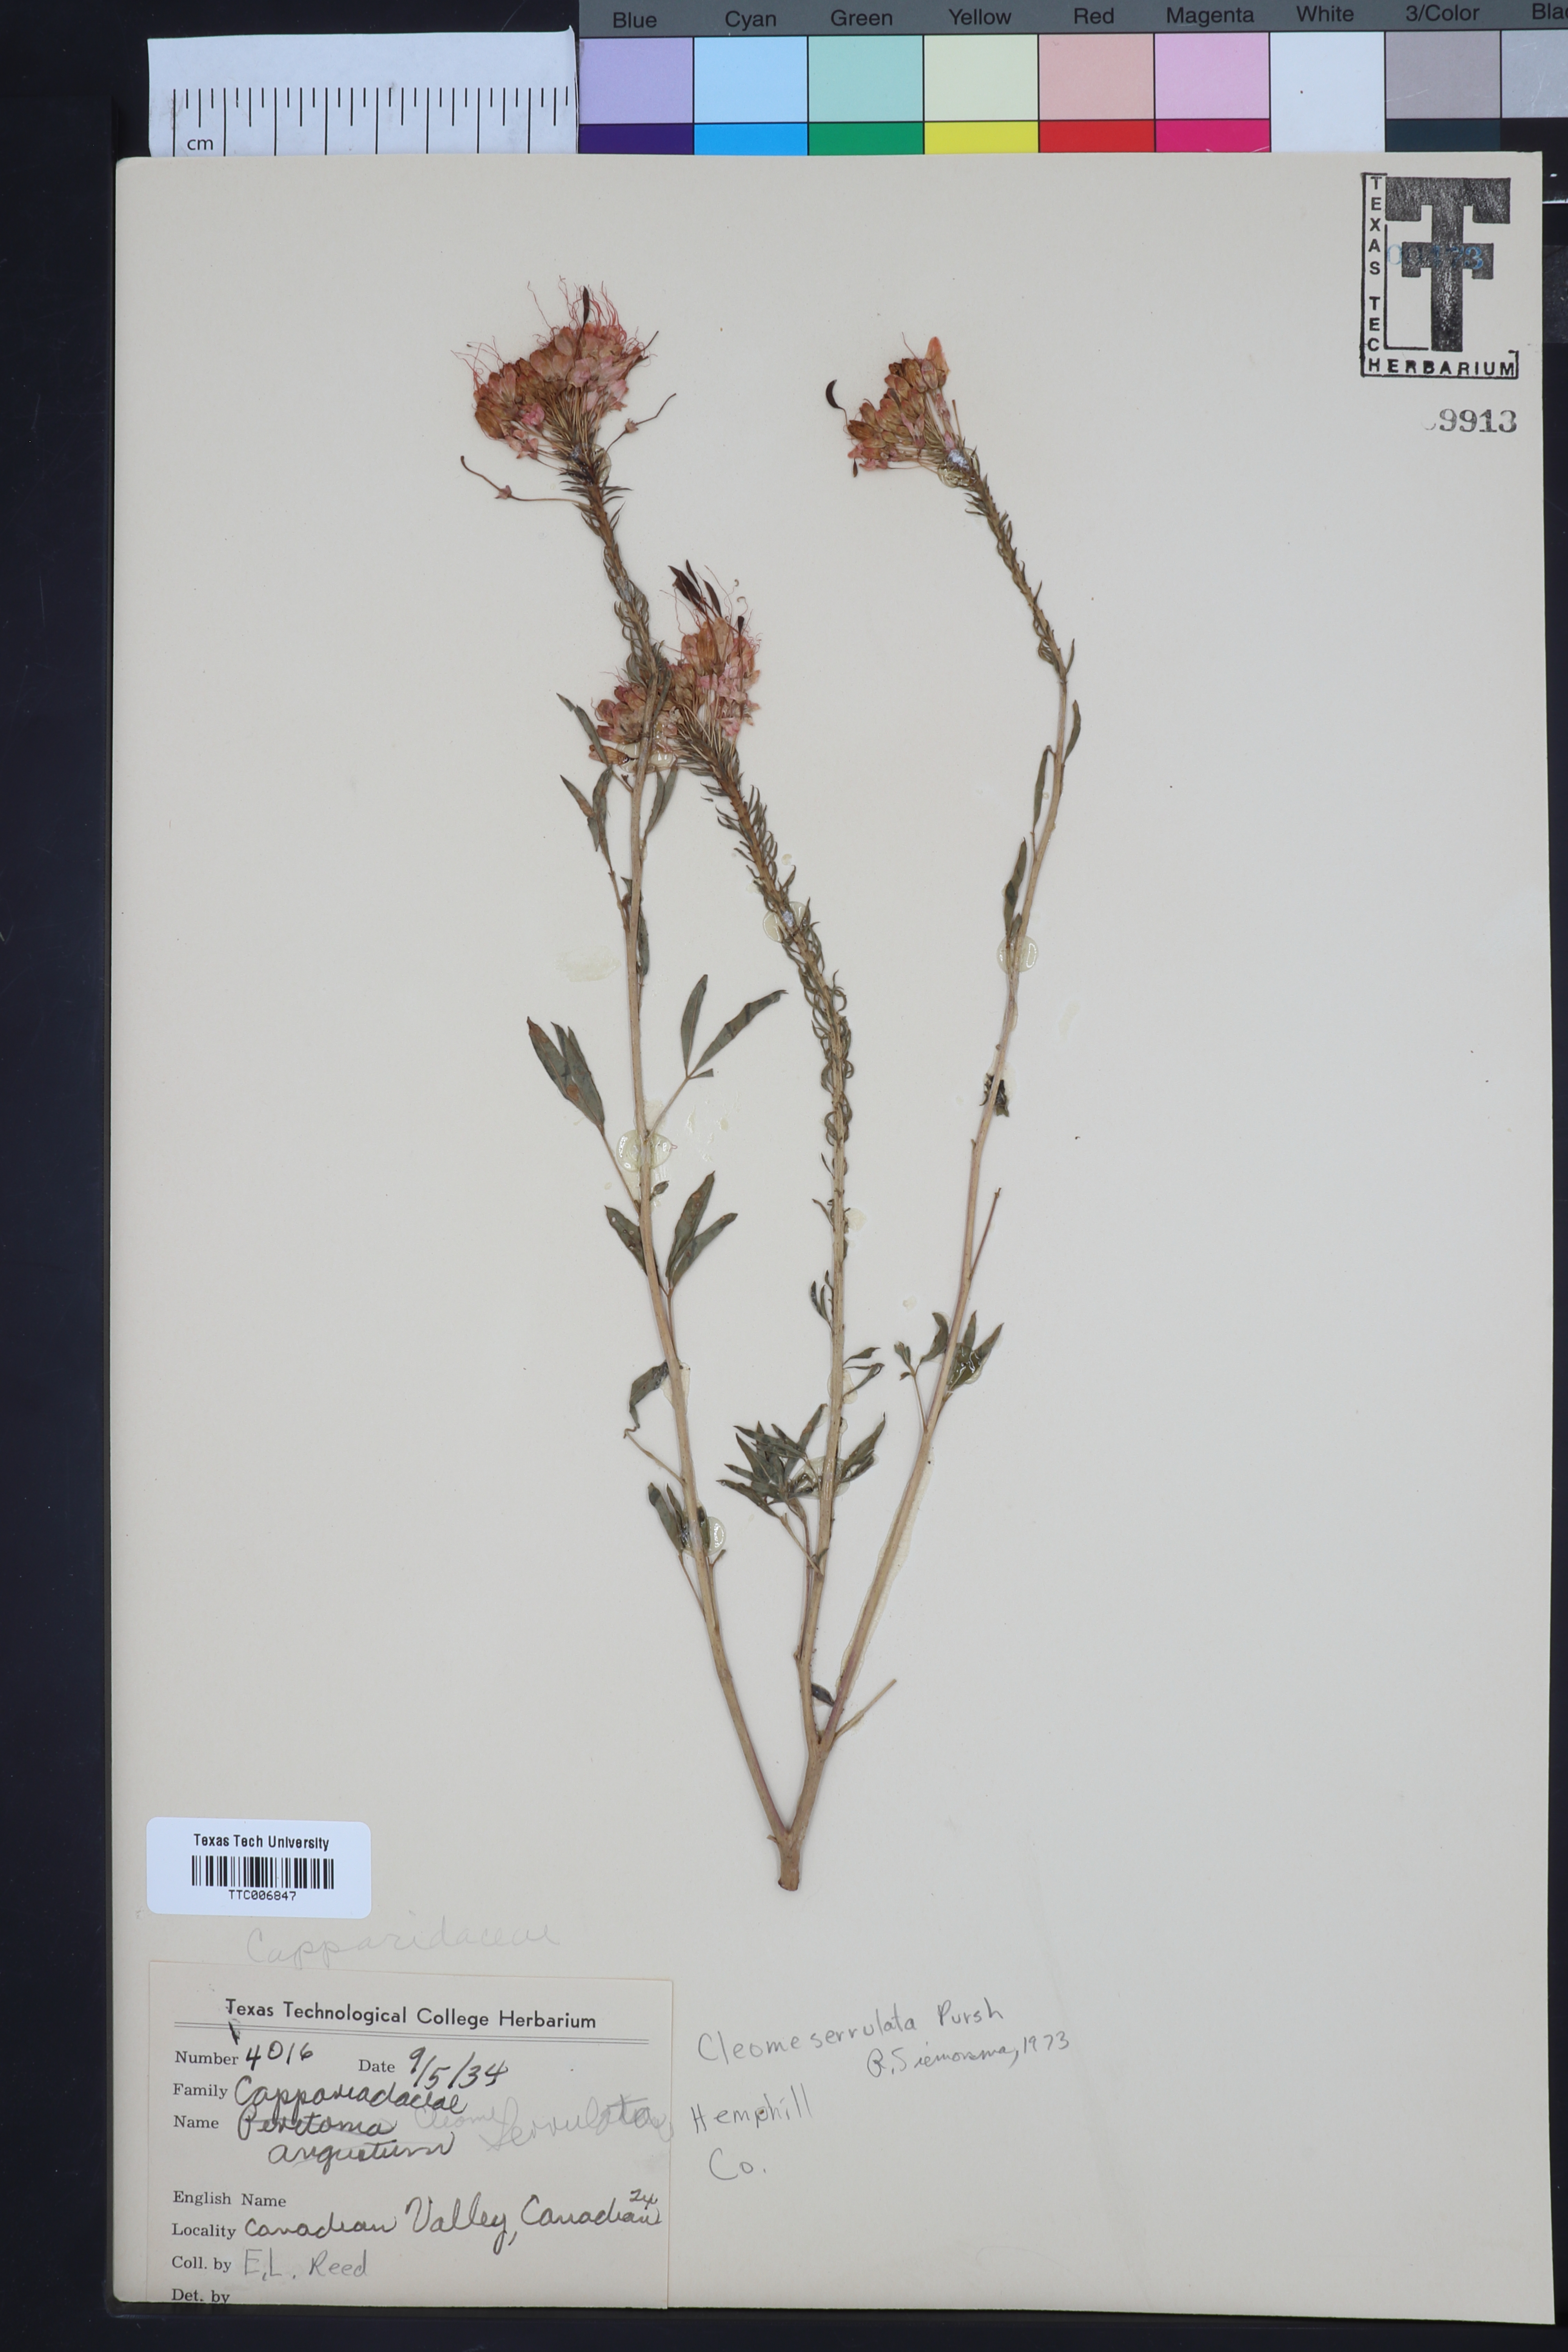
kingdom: Plantae
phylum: Tracheophyta
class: Magnoliopsida
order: Brassicales
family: Cleomaceae
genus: Cleomella
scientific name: Cleomella serrulata
